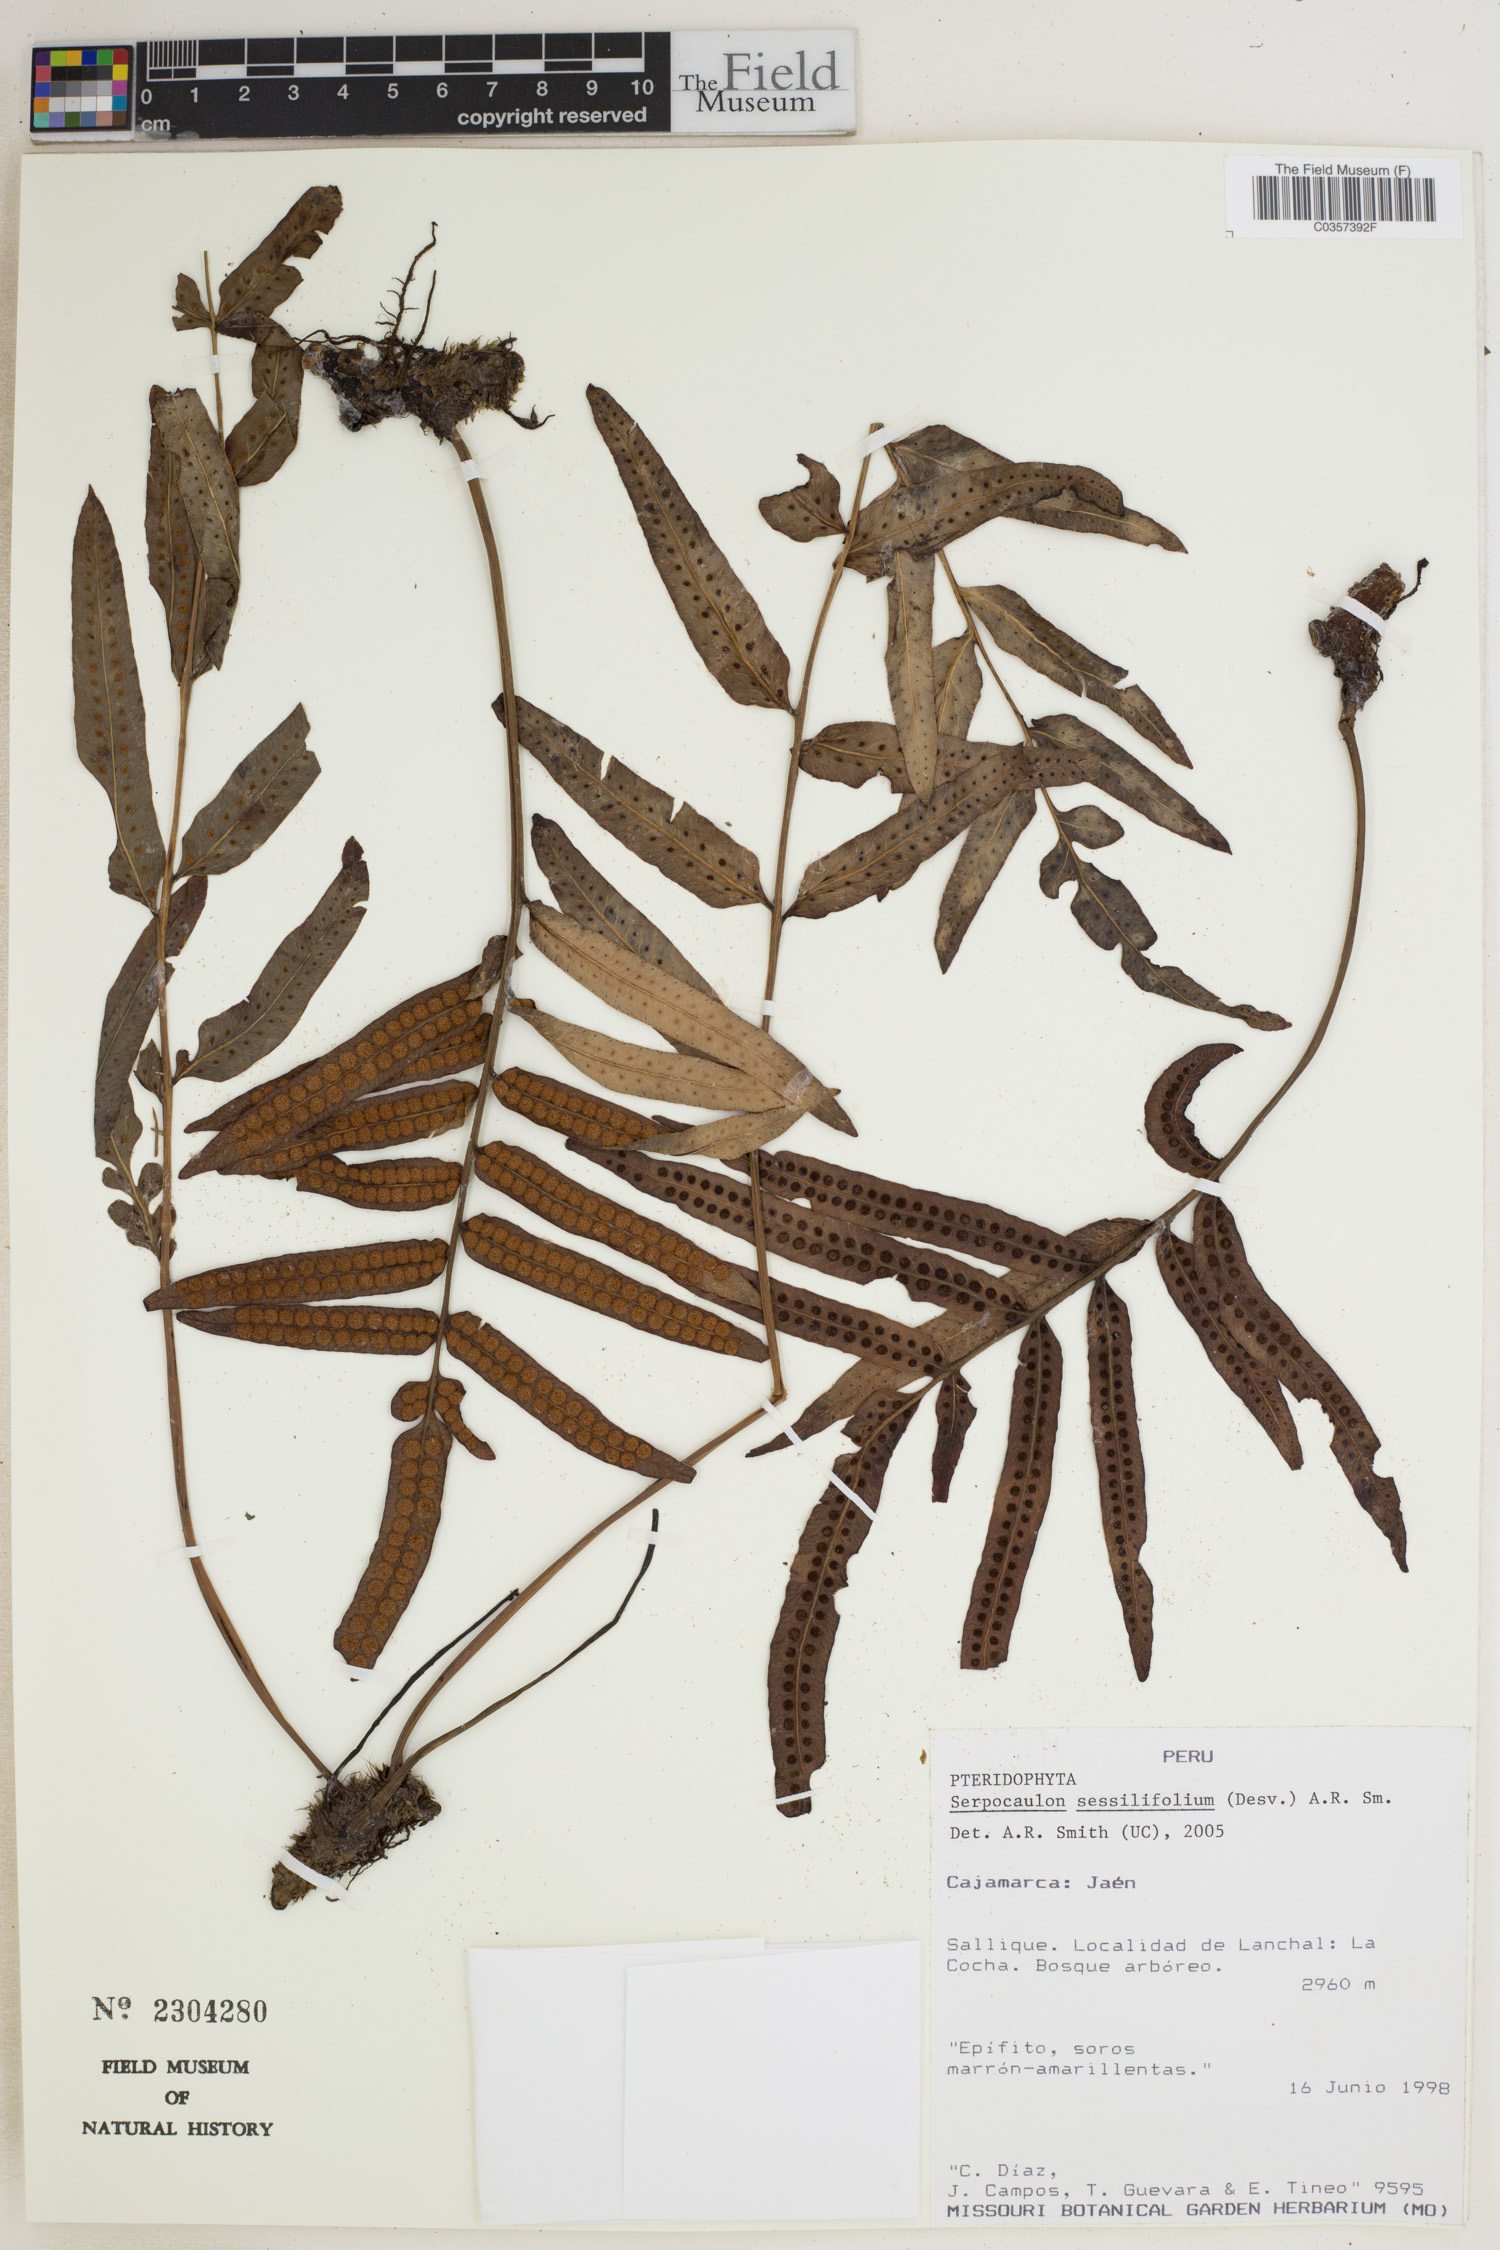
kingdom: Plantae
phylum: Tracheophyta
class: Polypodiopsida
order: Polypodiales
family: Polypodiaceae
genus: Serpocaulon
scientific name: Serpocaulon sessilifolium
